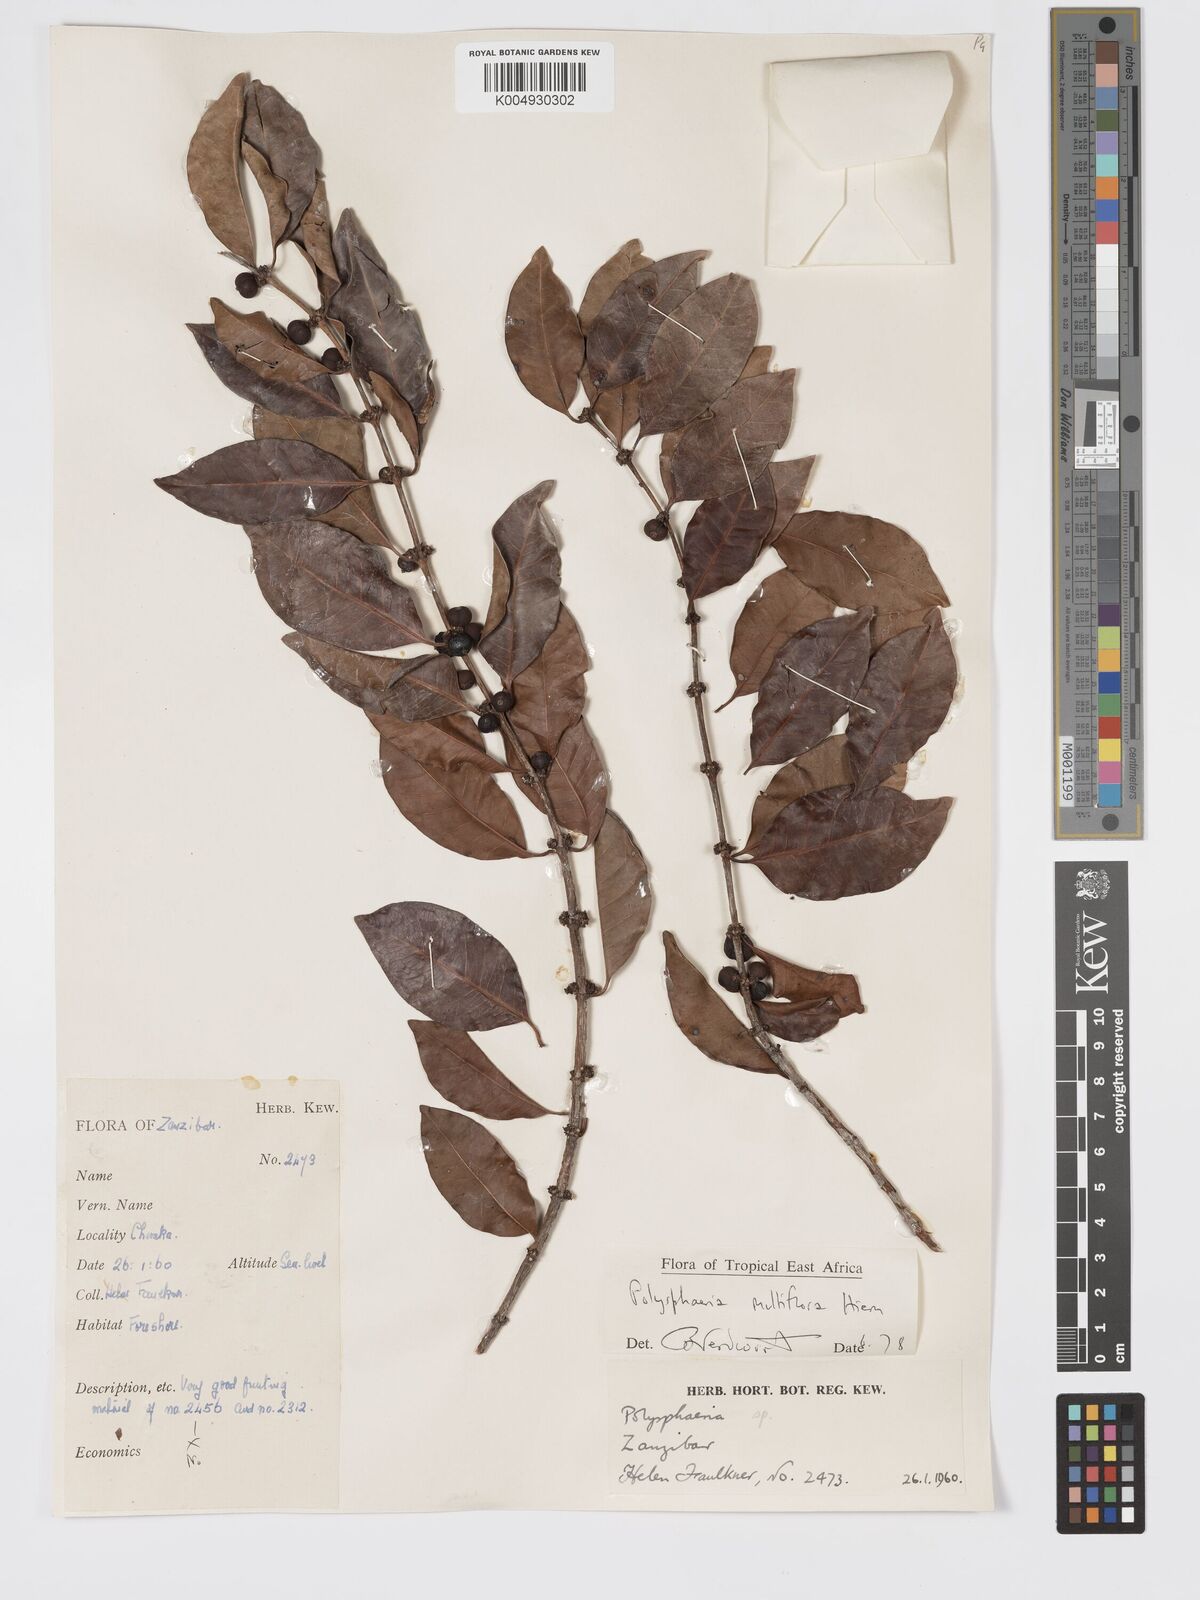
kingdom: Plantae
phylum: Tracheophyta
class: Magnoliopsida
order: Gentianales
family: Rubiaceae
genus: Polysphaeria
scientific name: Polysphaeria multiflora
